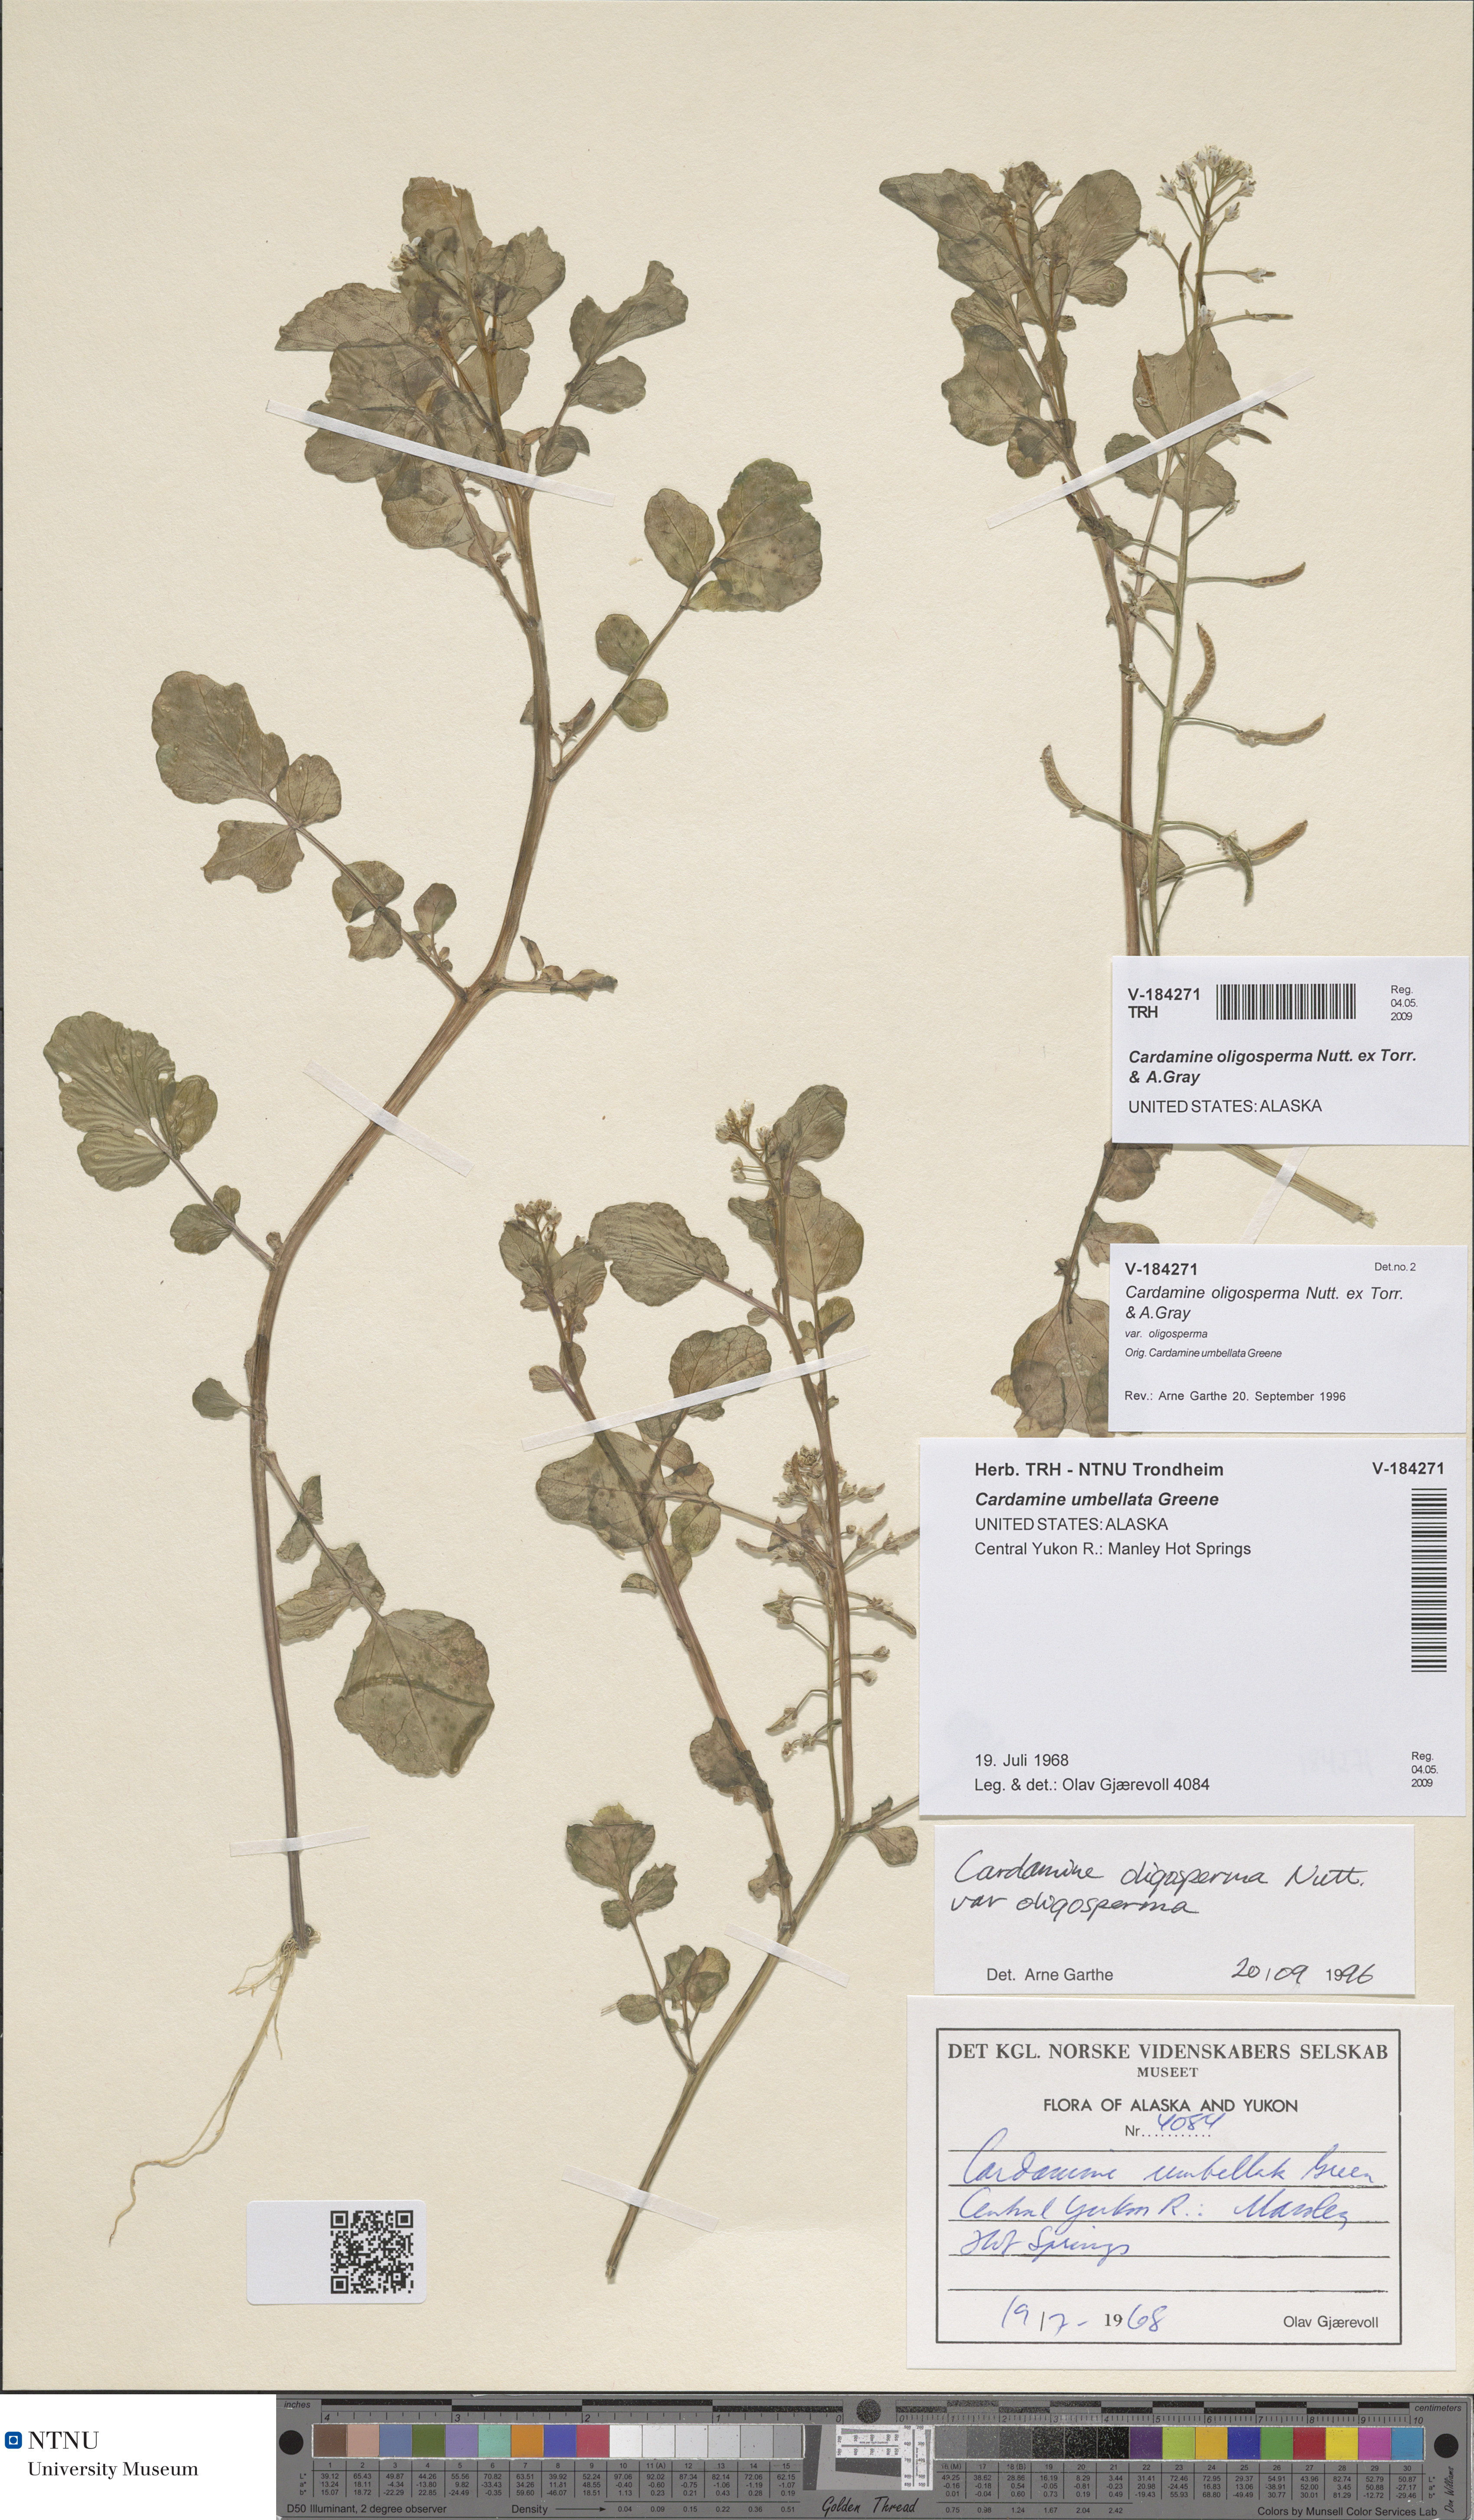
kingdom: Plantae
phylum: Tracheophyta
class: Magnoliopsida
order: Brassicales
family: Brassicaceae
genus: Cardamine
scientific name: Cardamine breweri
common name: Brewer's bittercress
